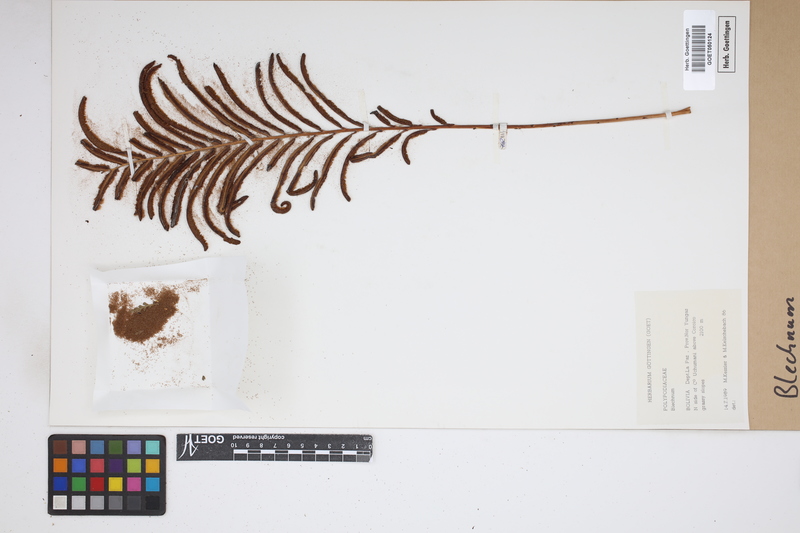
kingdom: Plantae
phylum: Tracheophyta
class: Polypodiopsida
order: Polypodiales
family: Blechnaceae
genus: Blechnum
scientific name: Blechnum
